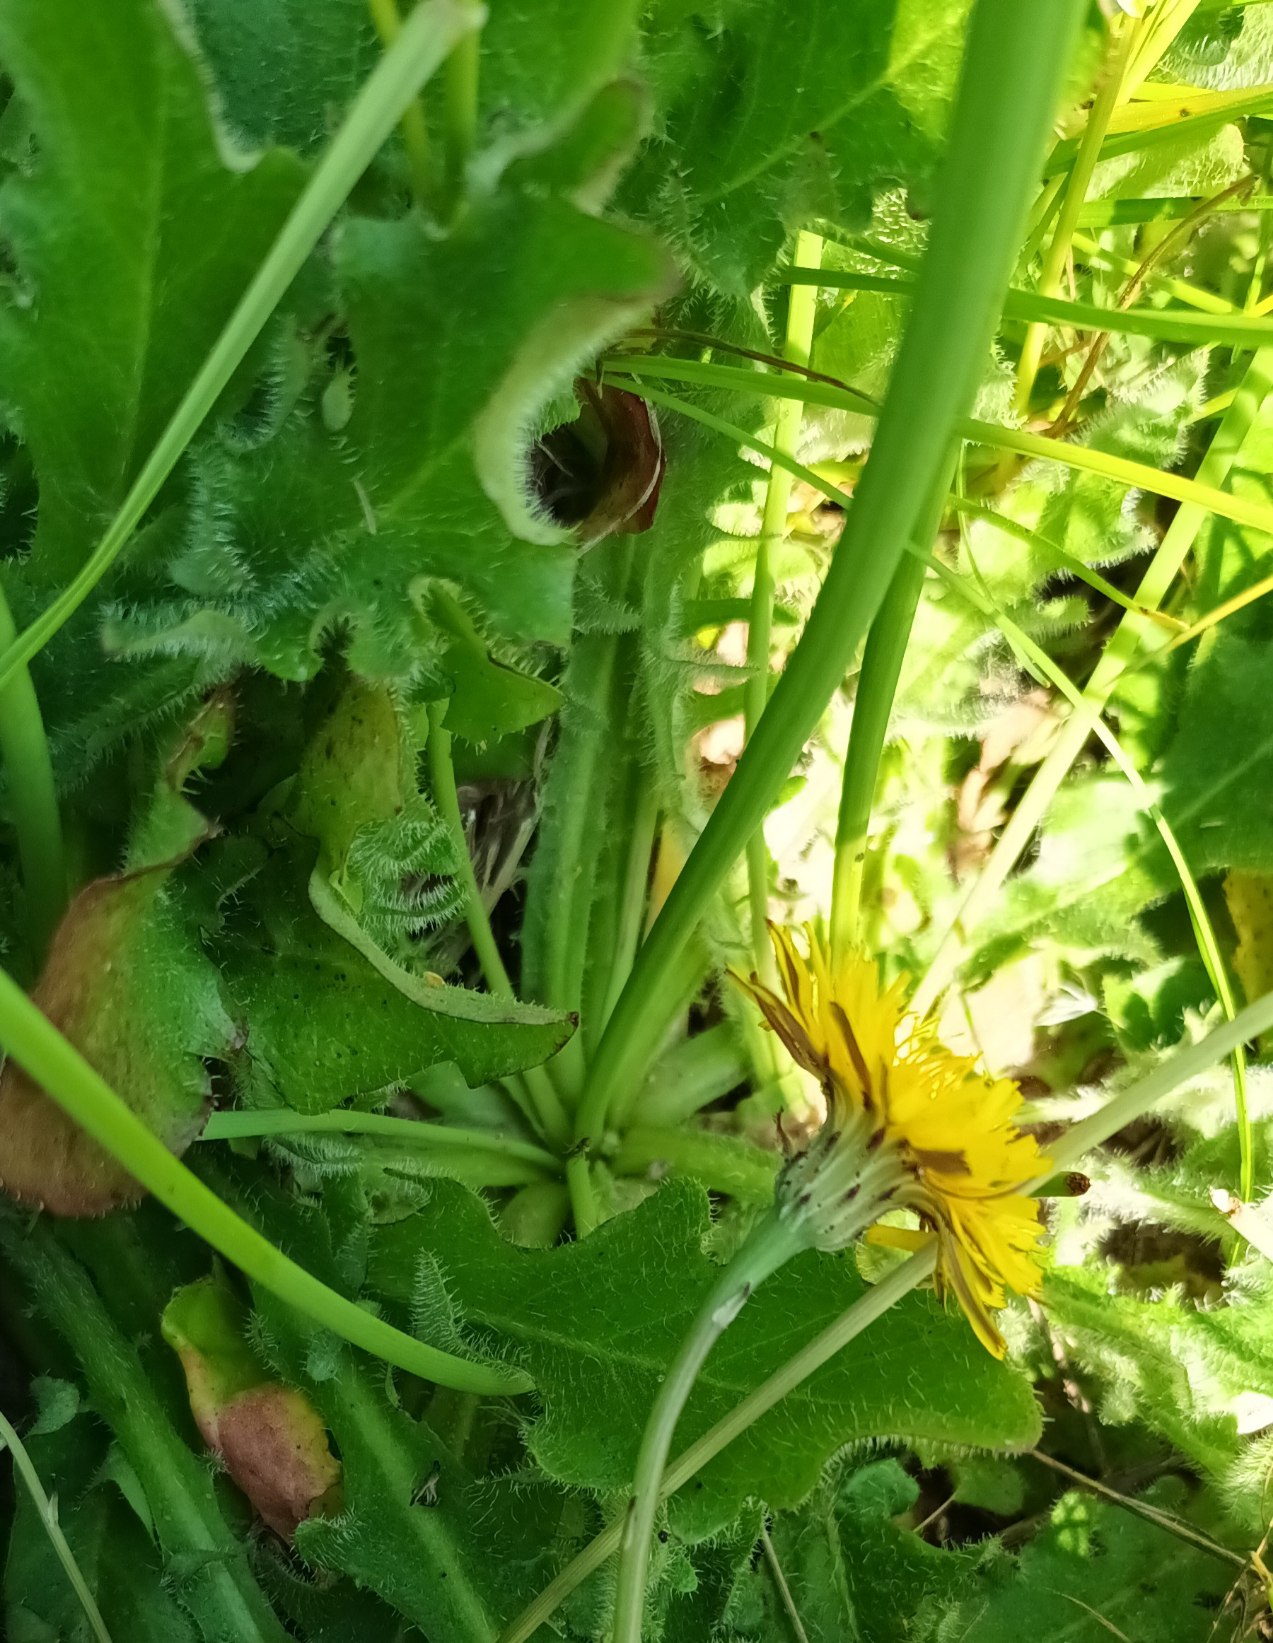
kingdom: Plantae
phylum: Tracheophyta
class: Magnoliopsida
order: Asterales
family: Asteraceae
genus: Hypochaeris
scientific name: Hypochaeris radicata
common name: Almindelig kongepen
